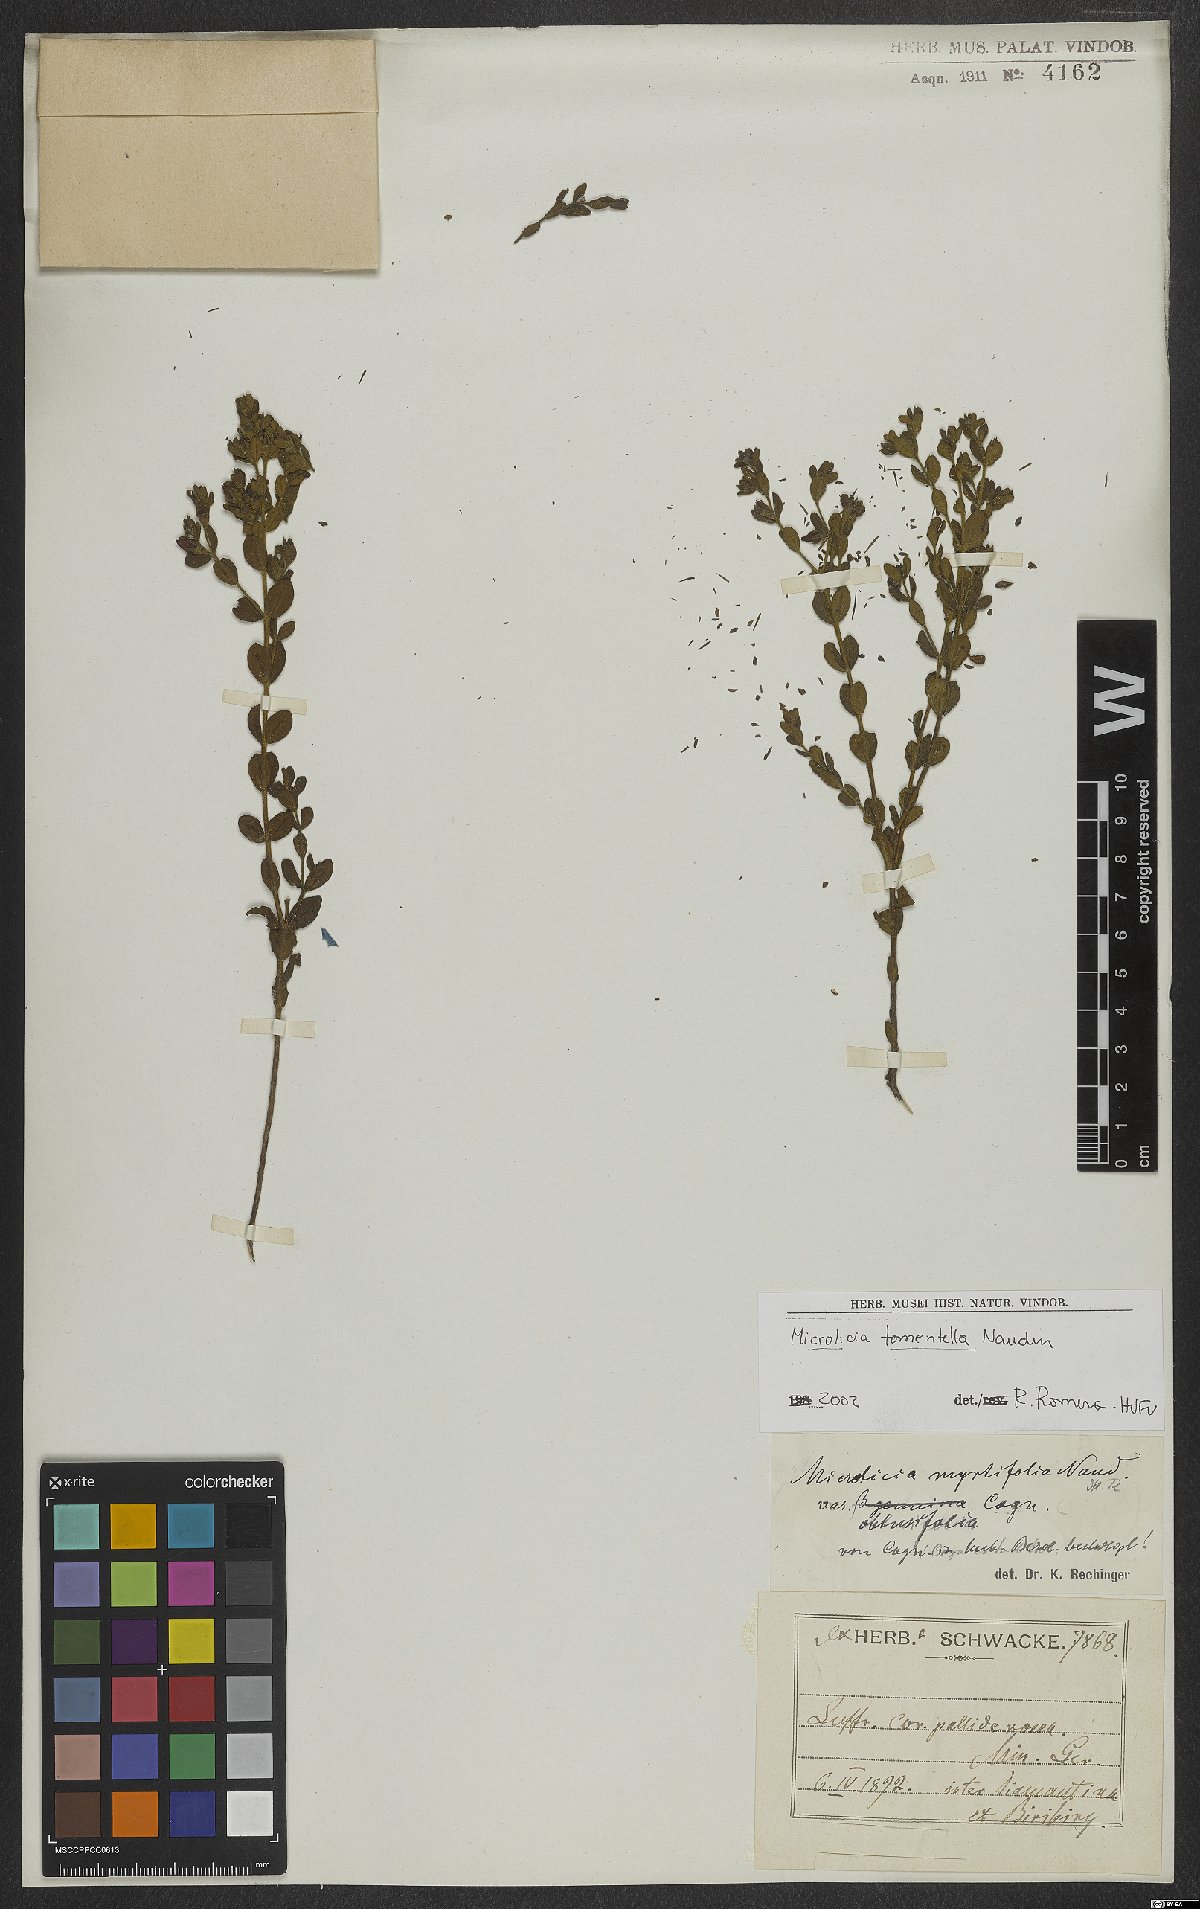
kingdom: Plantae
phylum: Tracheophyta
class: Magnoliopsida
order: Myrtales
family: Melastomataceae
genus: Microlicia
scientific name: Microlicia tomentella
